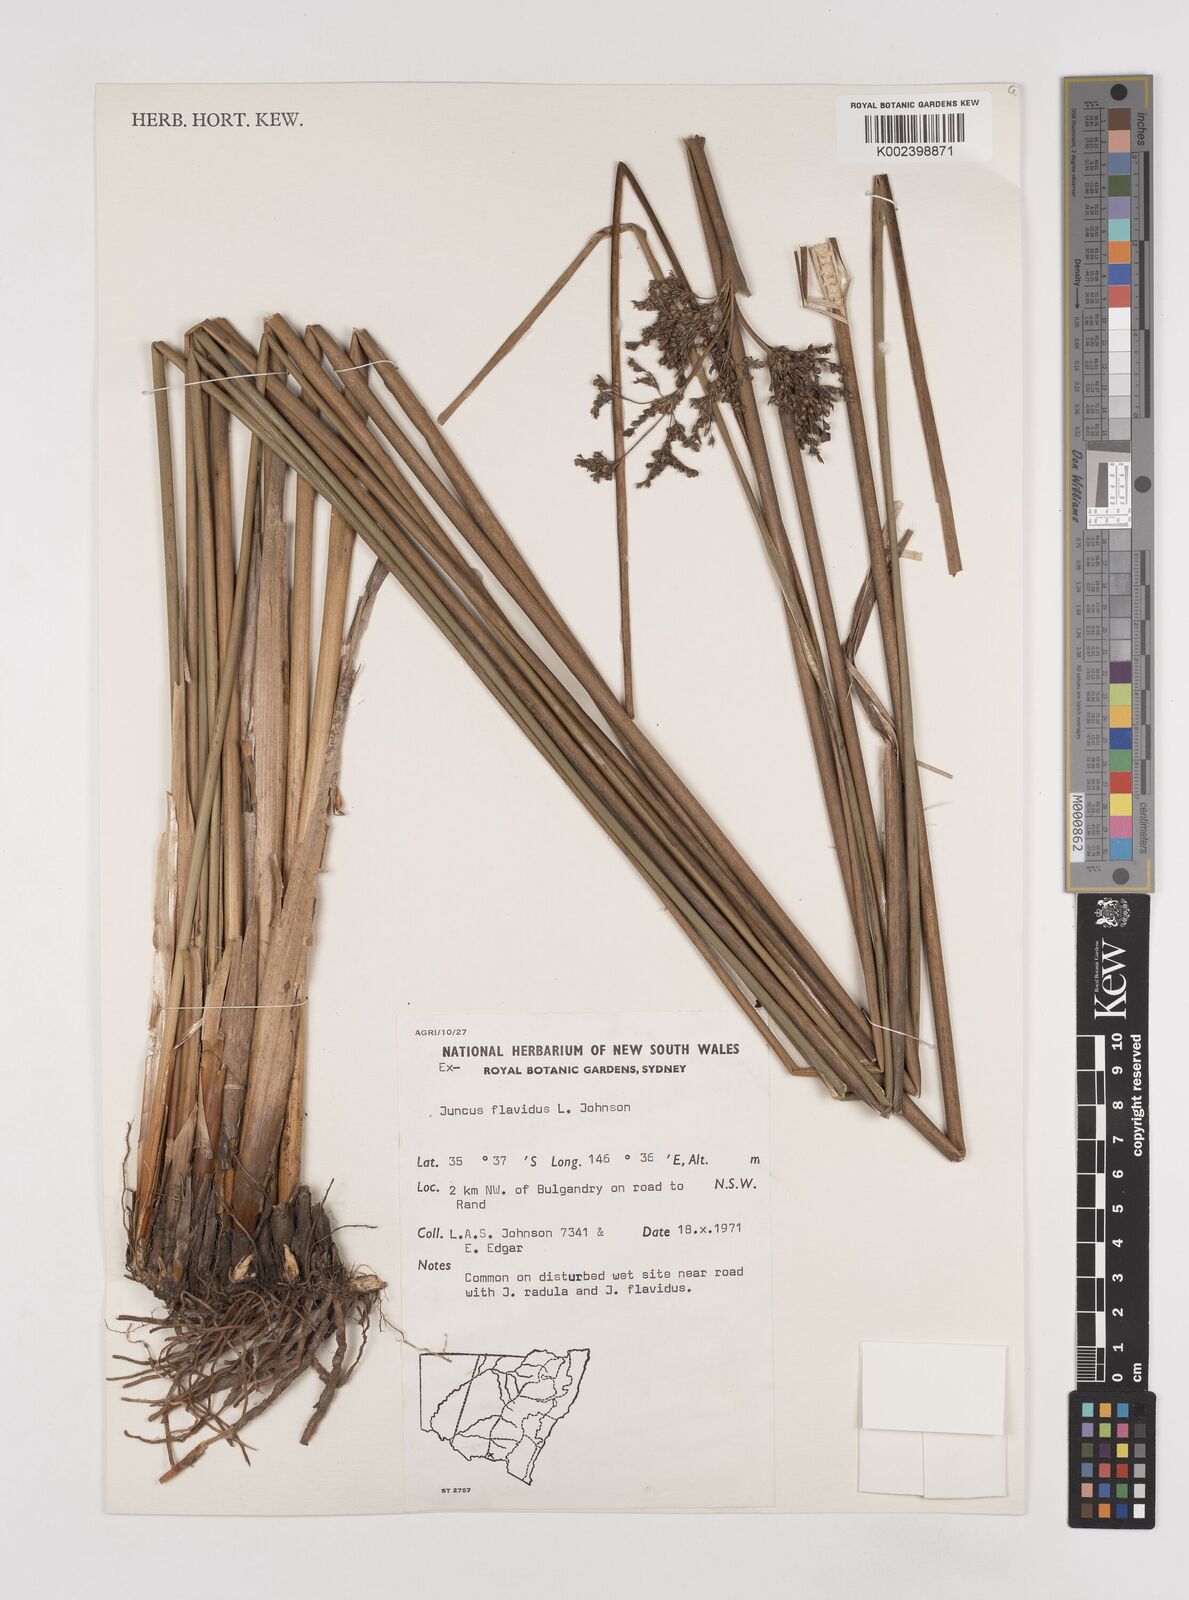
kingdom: Plantae
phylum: Tracheophyta
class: Liliopsida
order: Poales
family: Juncaceae
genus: Juncus
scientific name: Juncus flavidus
